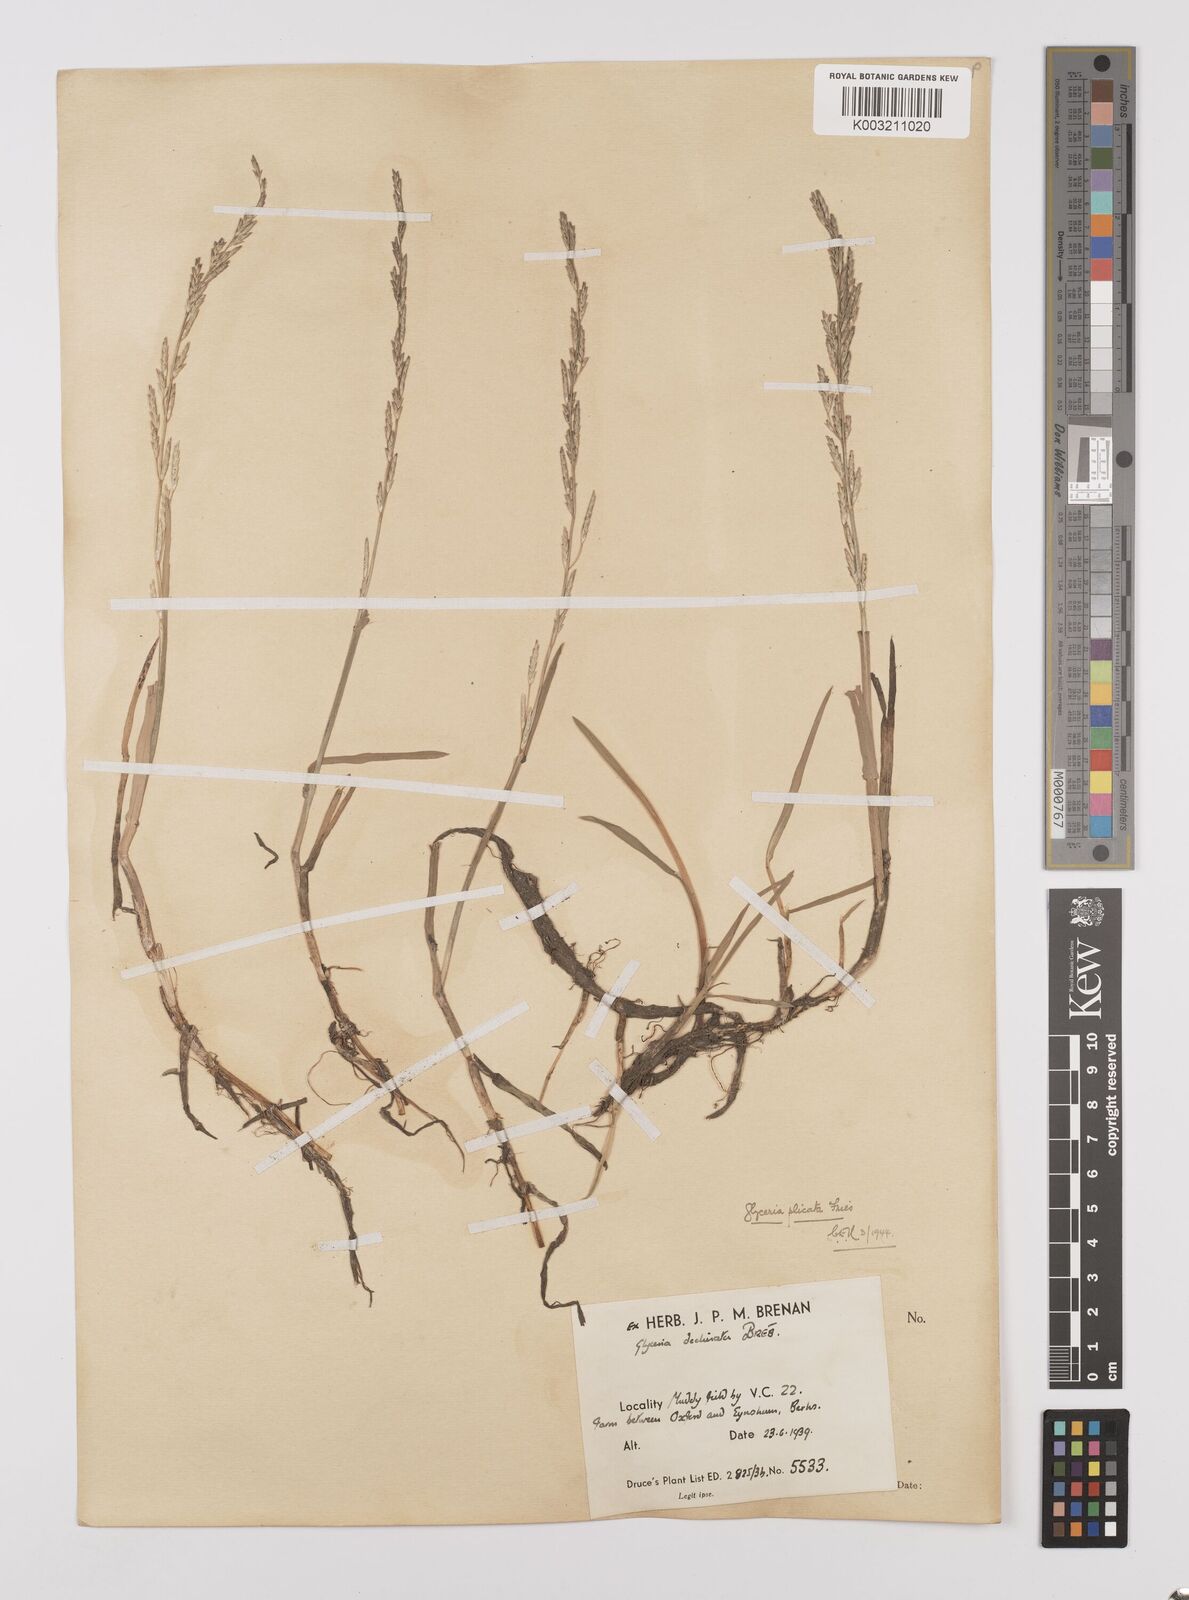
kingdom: Plantae
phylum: Tracheophyta
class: Liliopsida
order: Poales
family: Poaceae
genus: Glyceria
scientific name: Glyceria notata
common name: Plicate sweet-grass
